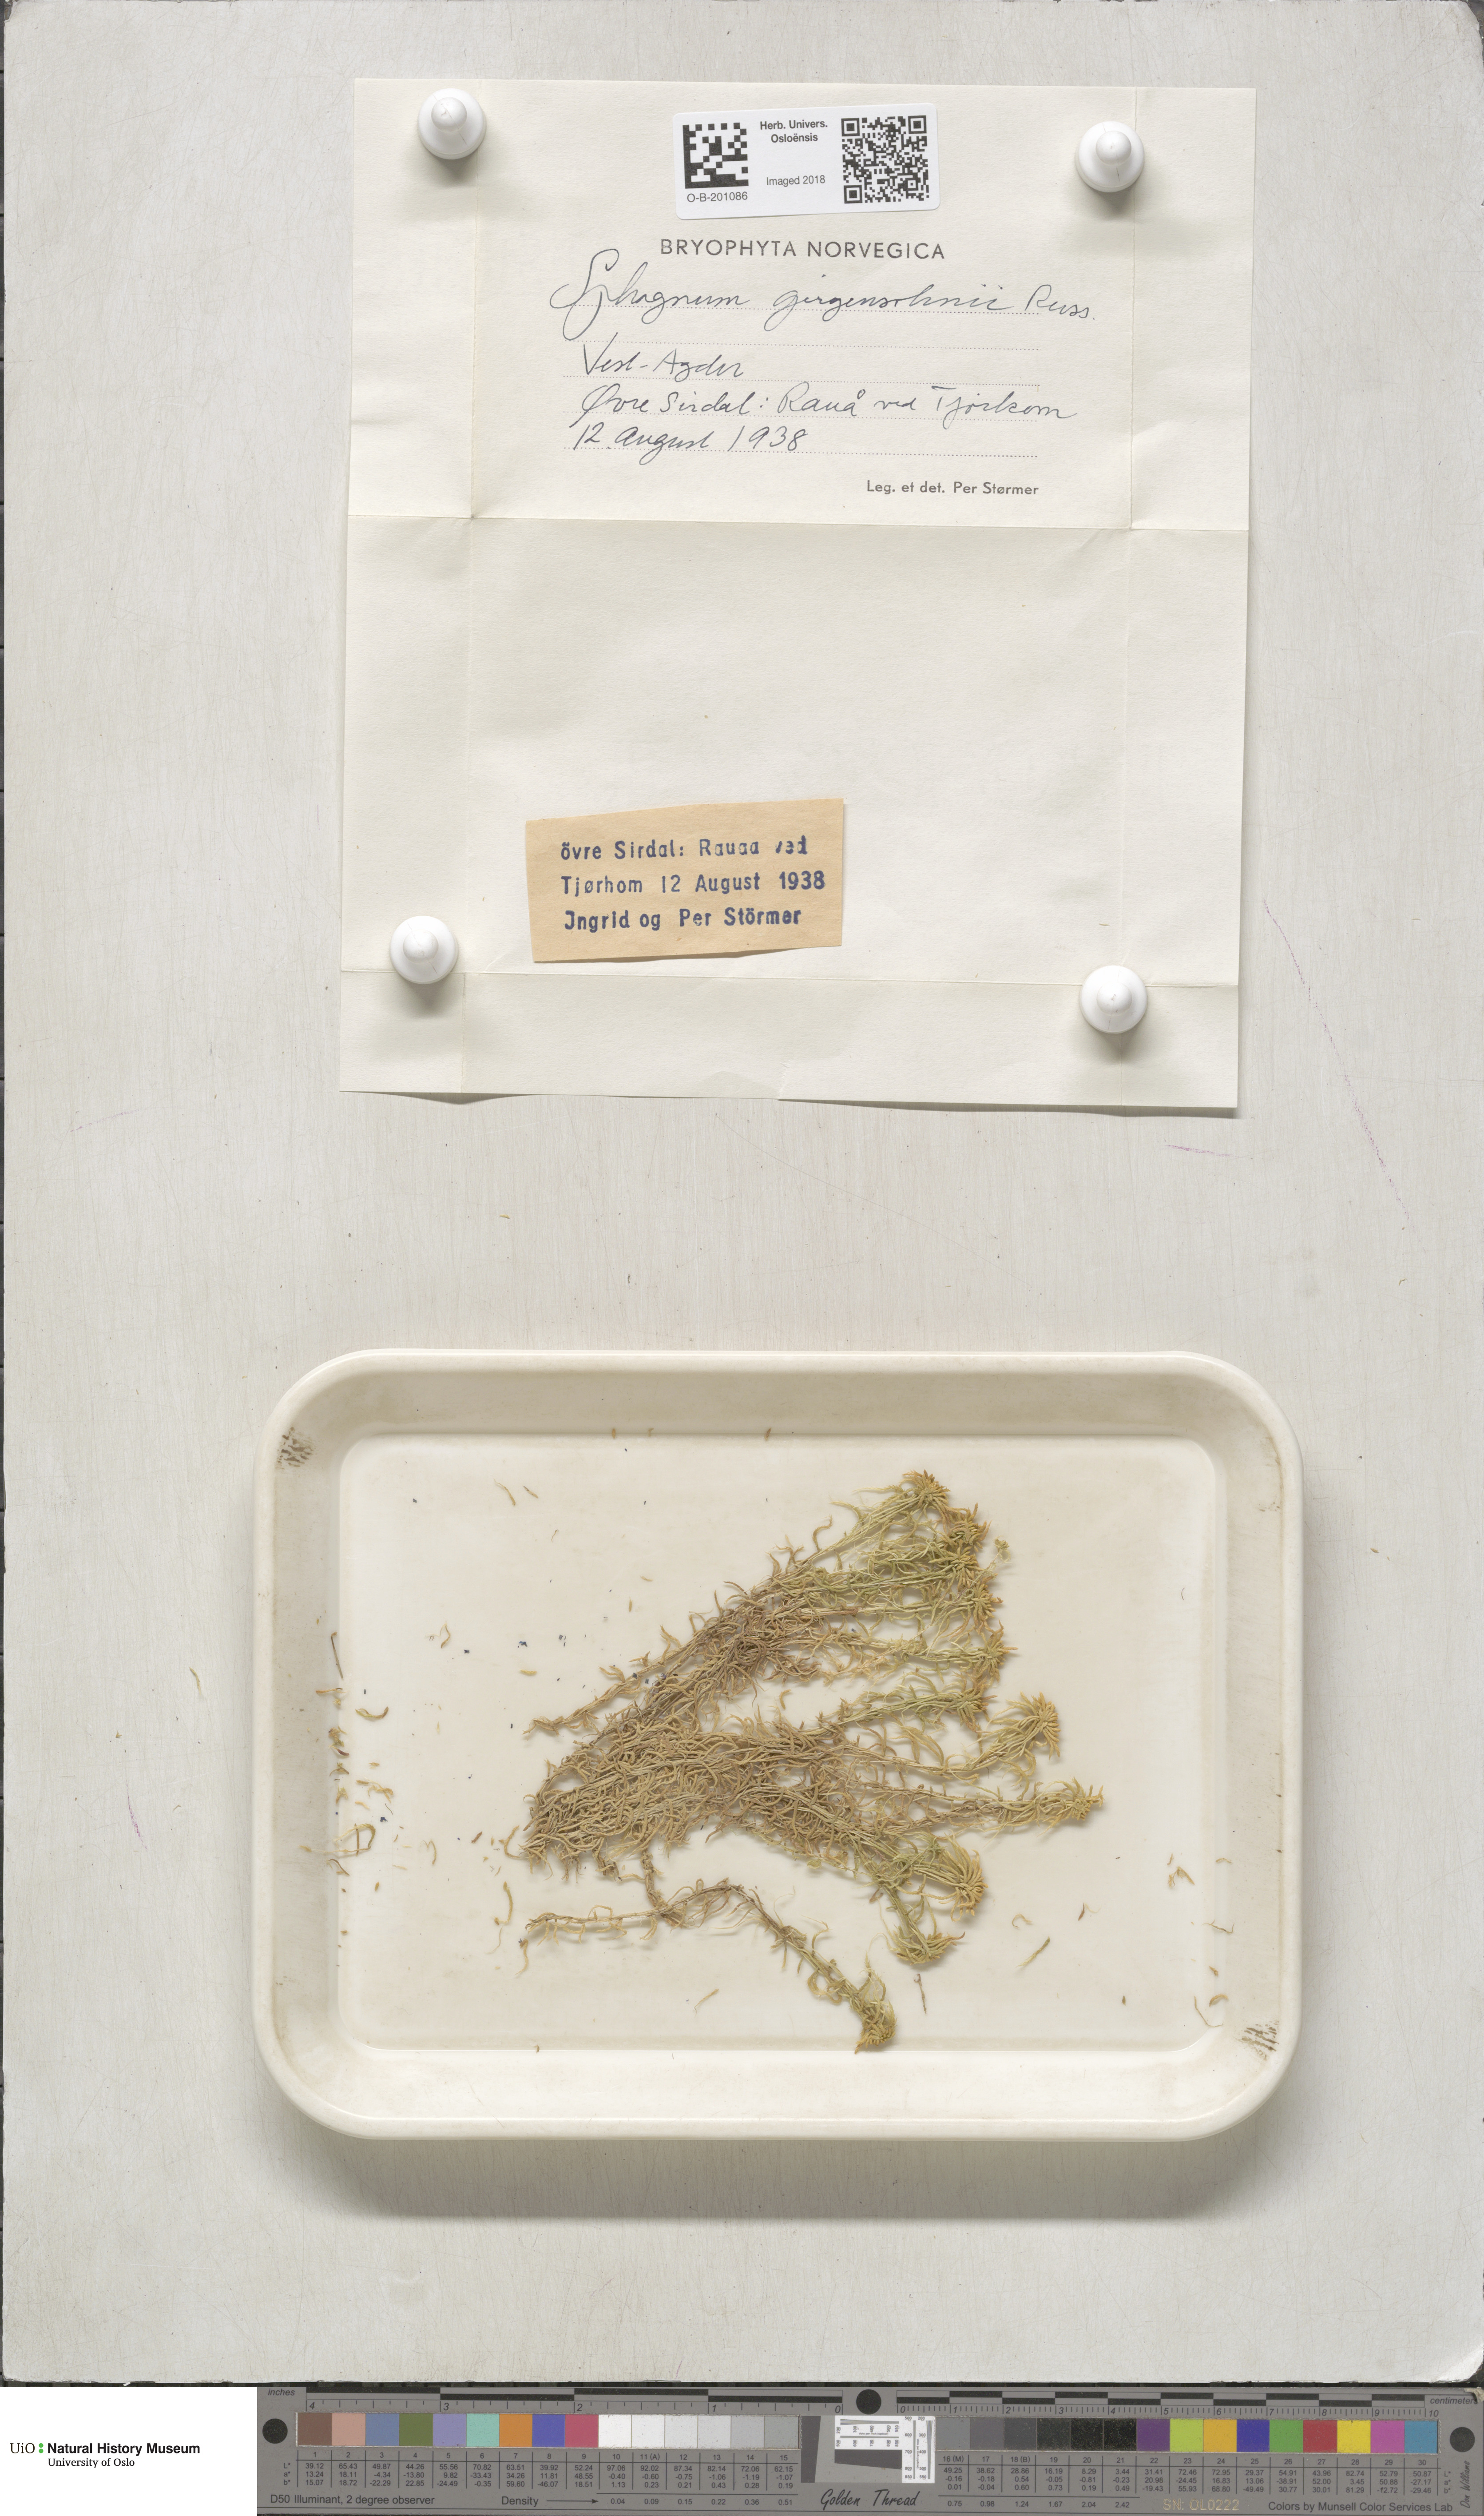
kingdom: Plantae
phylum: Bryophyta
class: Sphagnopsida
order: Sphagnales
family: Sphagnaceae
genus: Sphagnum
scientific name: Sphagnum girgensohnii
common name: Girgensohn's peat moss
